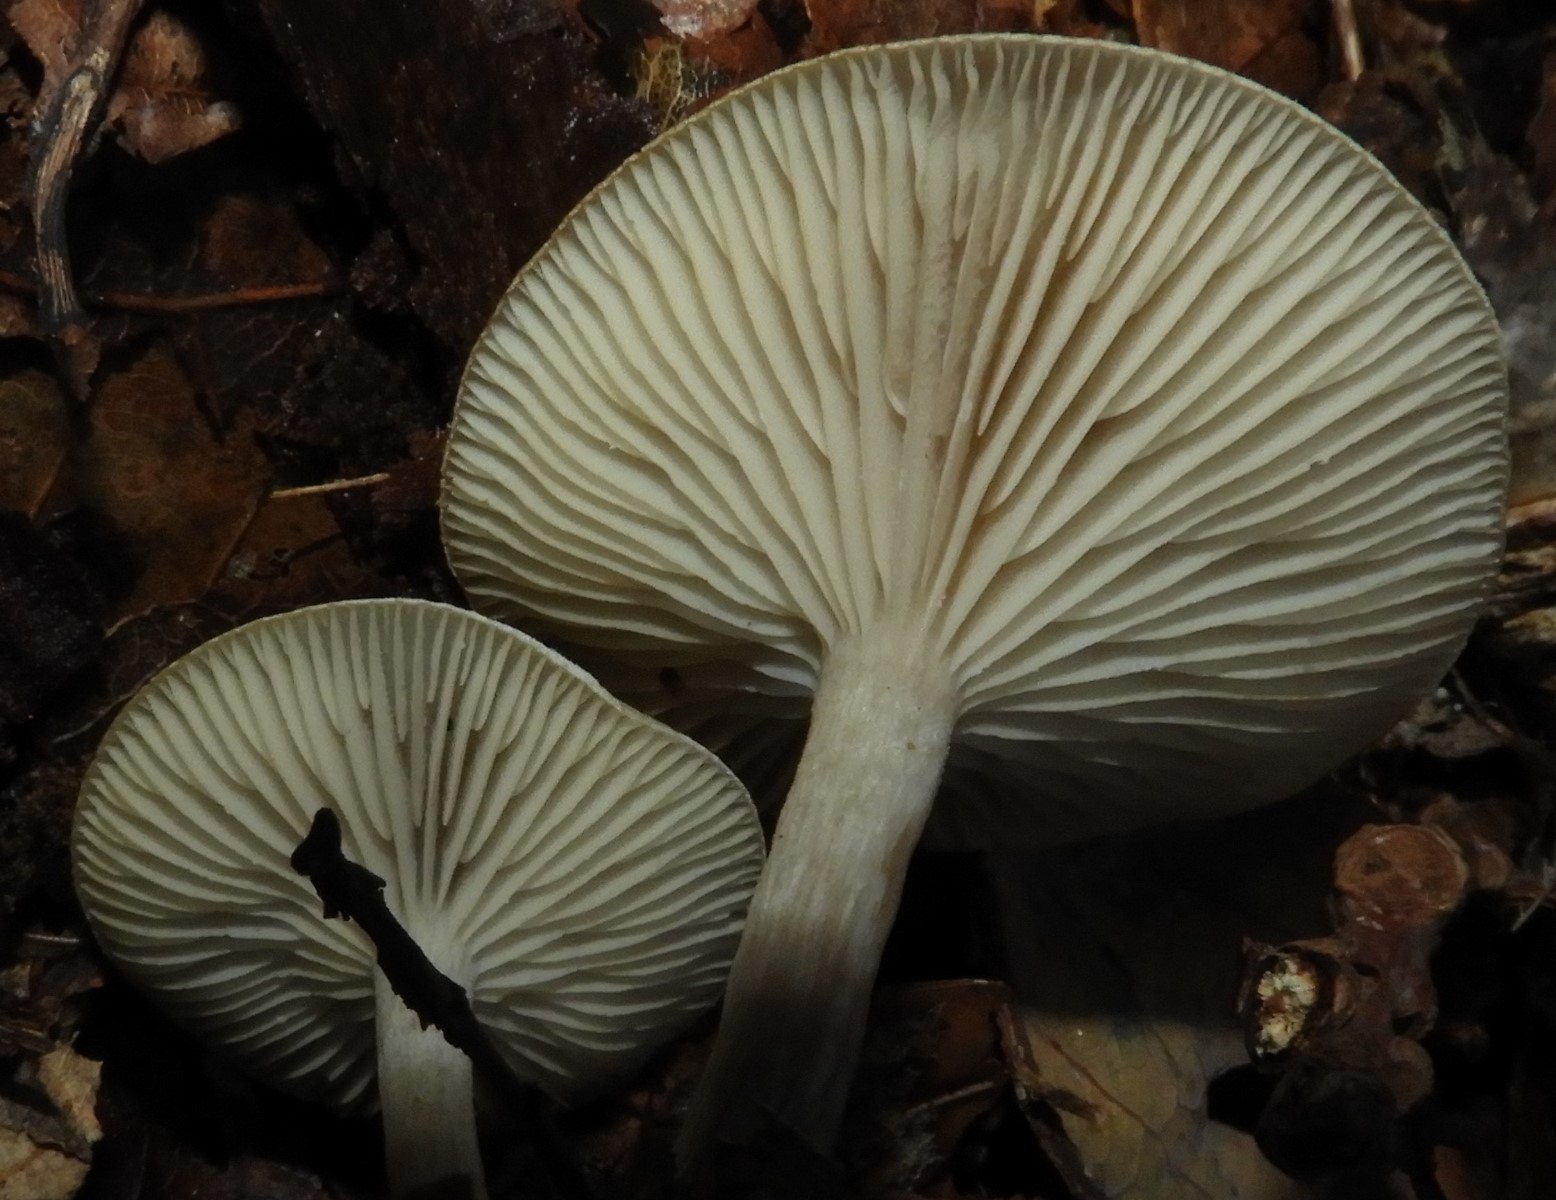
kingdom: Fungi
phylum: Basidiomycota
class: Agaricomycetes
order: Agaricales
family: Tricholomataceae
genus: Clitocybe
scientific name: Clitocybe
